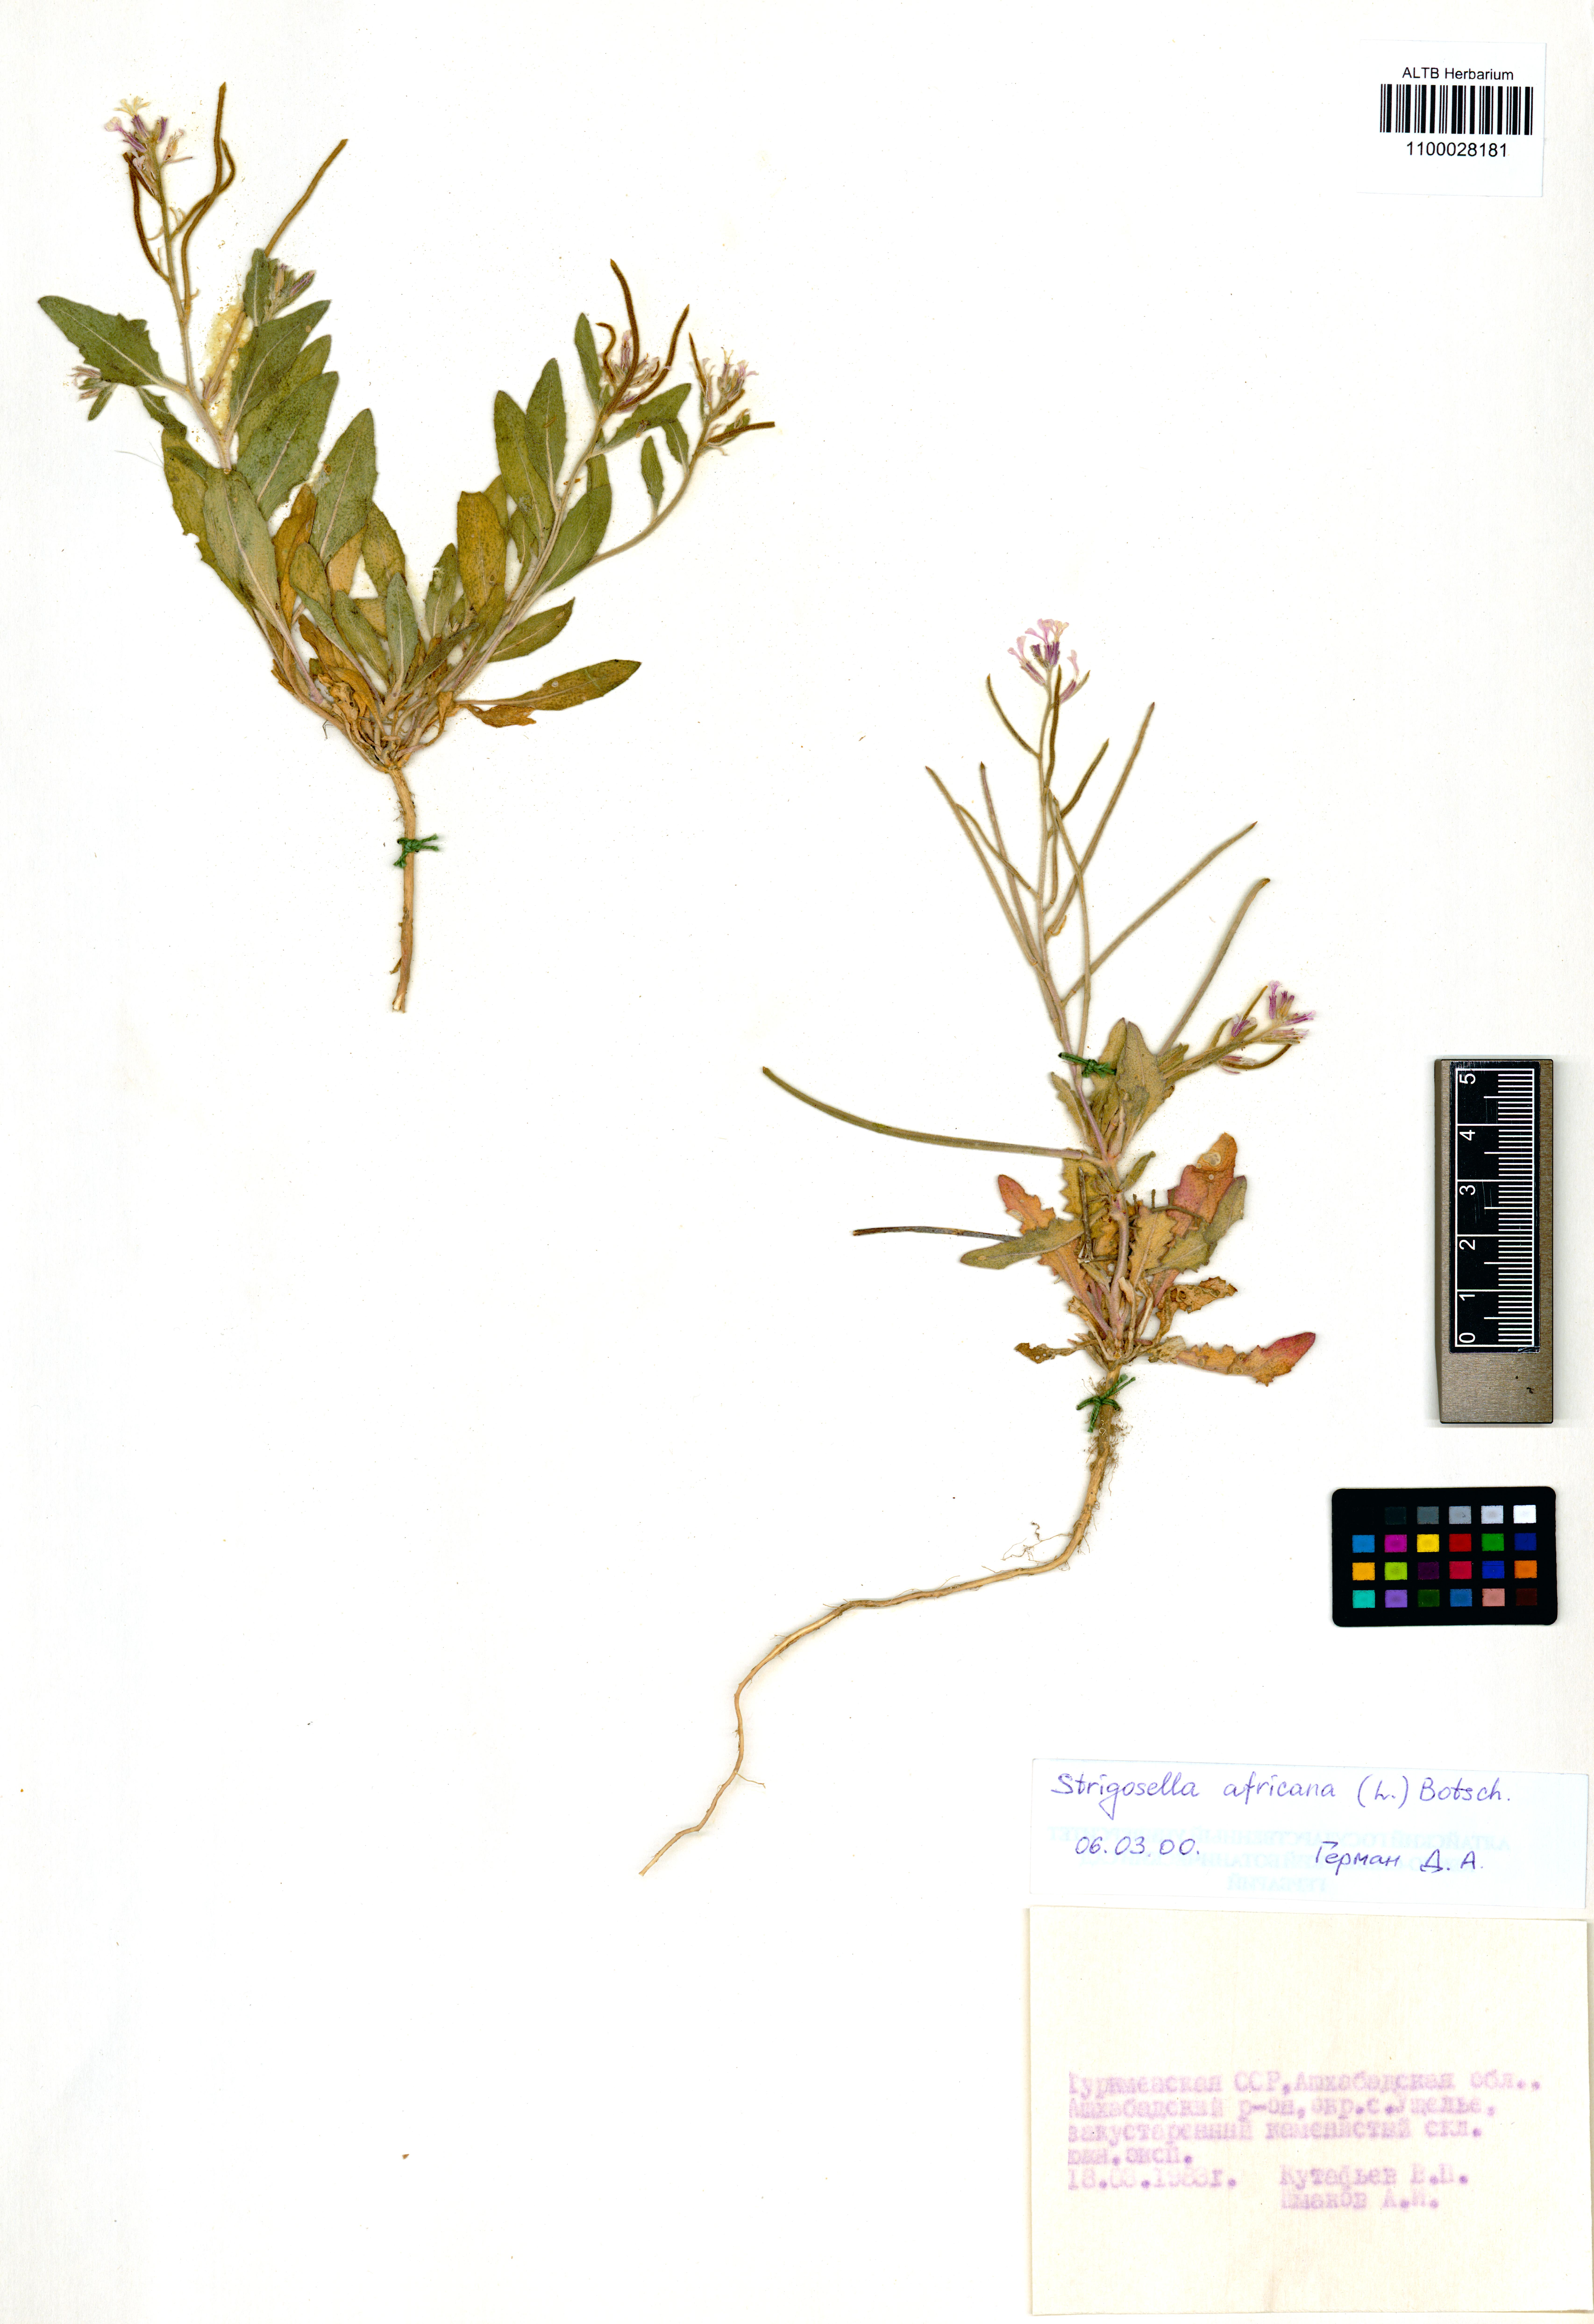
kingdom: Plantae
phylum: Tracheophyta
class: Magnoliopsida
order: Brassicales
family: Brassicaceae
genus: Strigosella
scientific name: Strigosella africana
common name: African mustard
